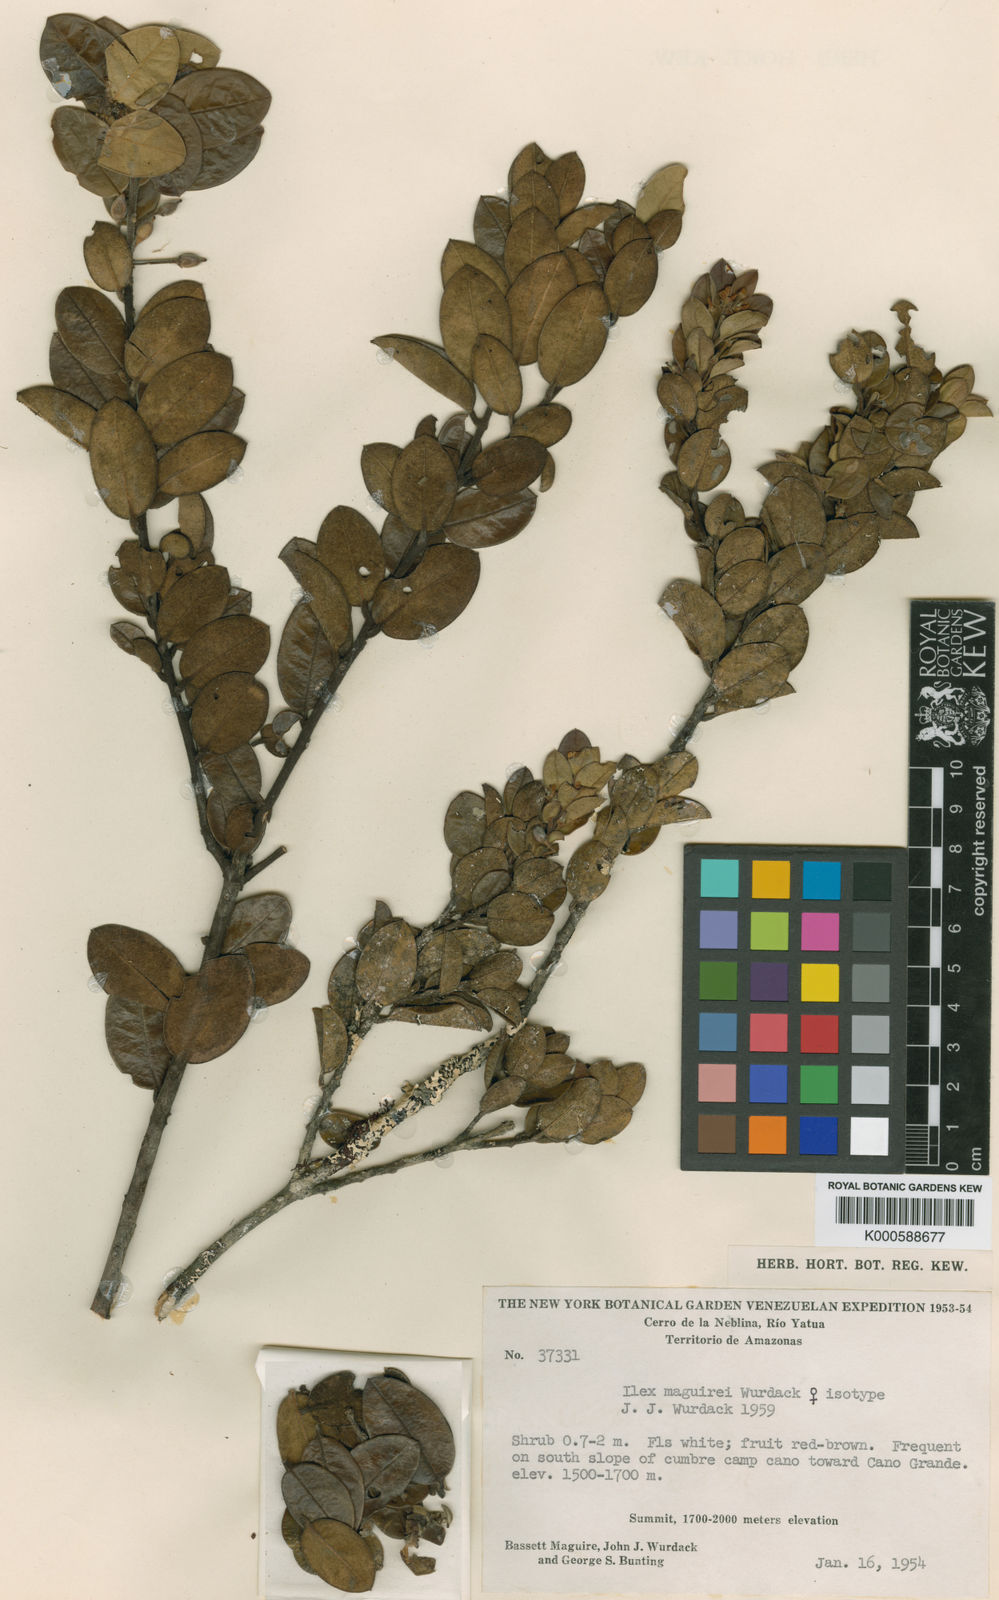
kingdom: Plantae
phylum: Tracheophyta
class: Magnoliopsida
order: Aquifoliales
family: Aquifoliaceae
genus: Ilex
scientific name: Ilex maguirei
